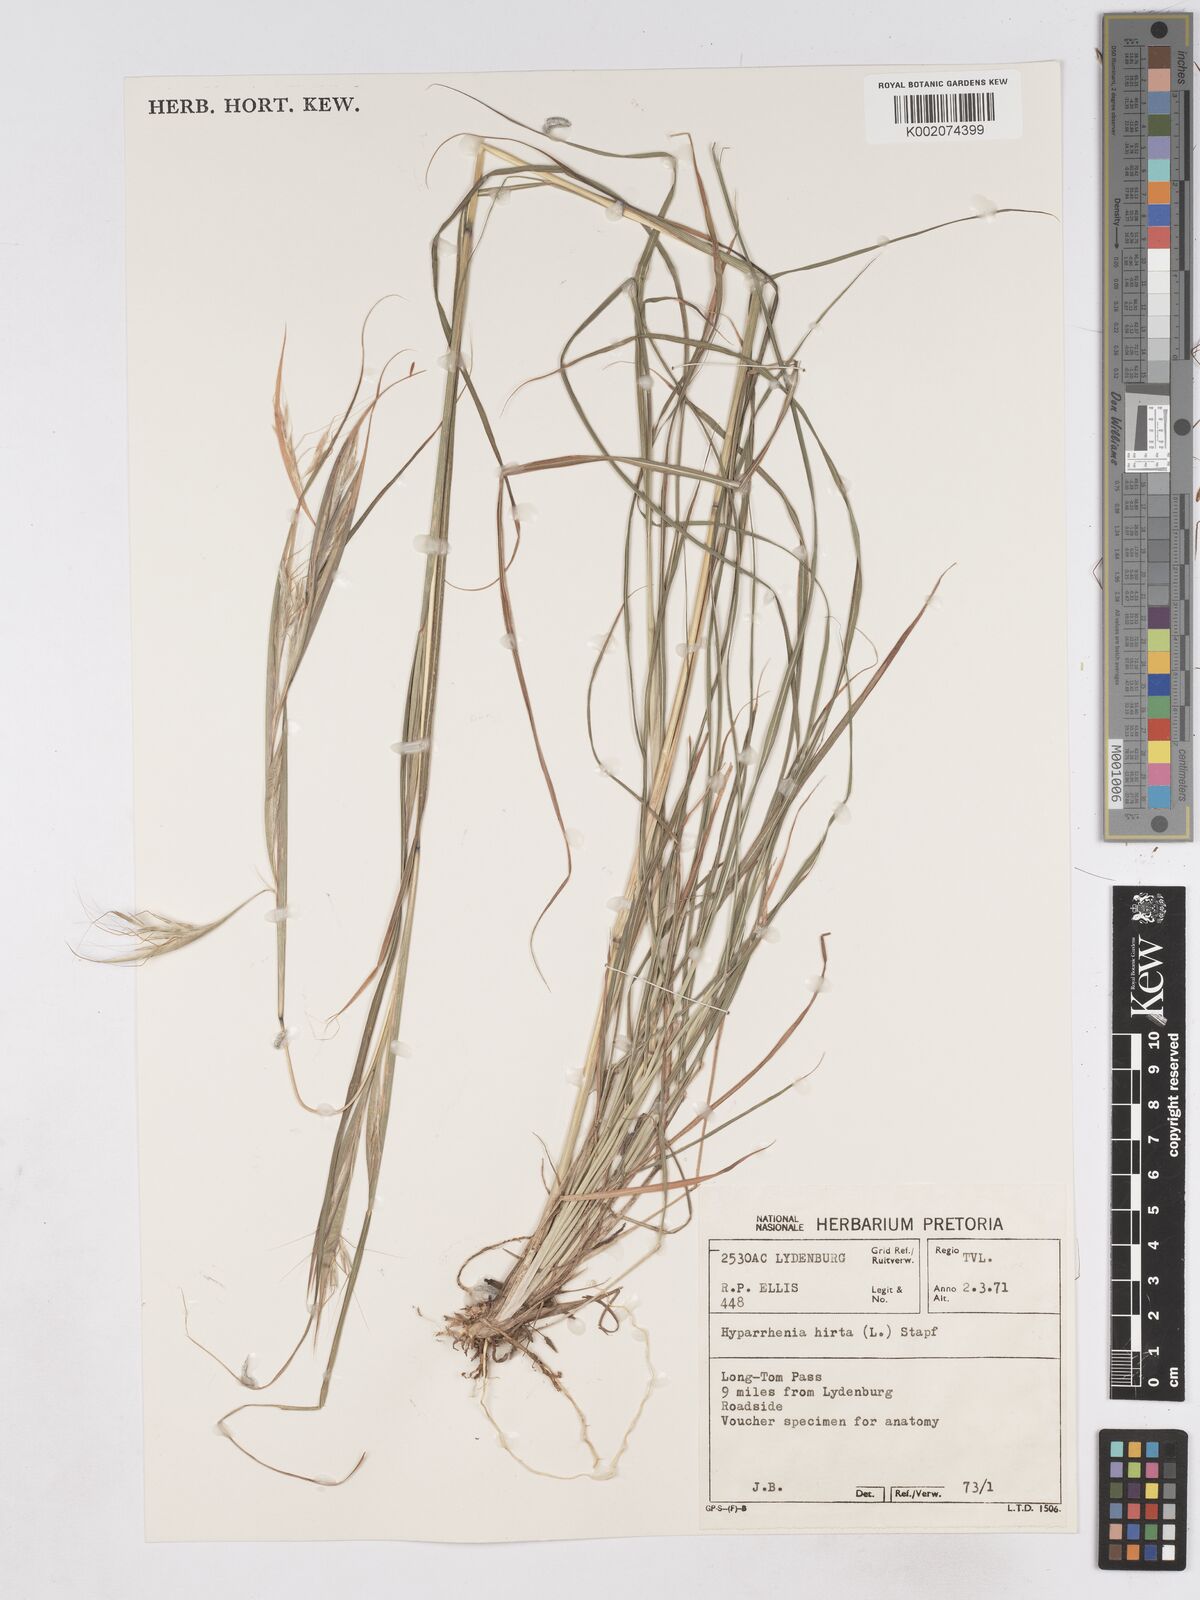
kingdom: Plantae
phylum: Tracheophyta
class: Liliopsida
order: Poales
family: Poaceae
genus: Hyparrhenia
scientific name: Hyparrhenia hirta
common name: Thatching grass
